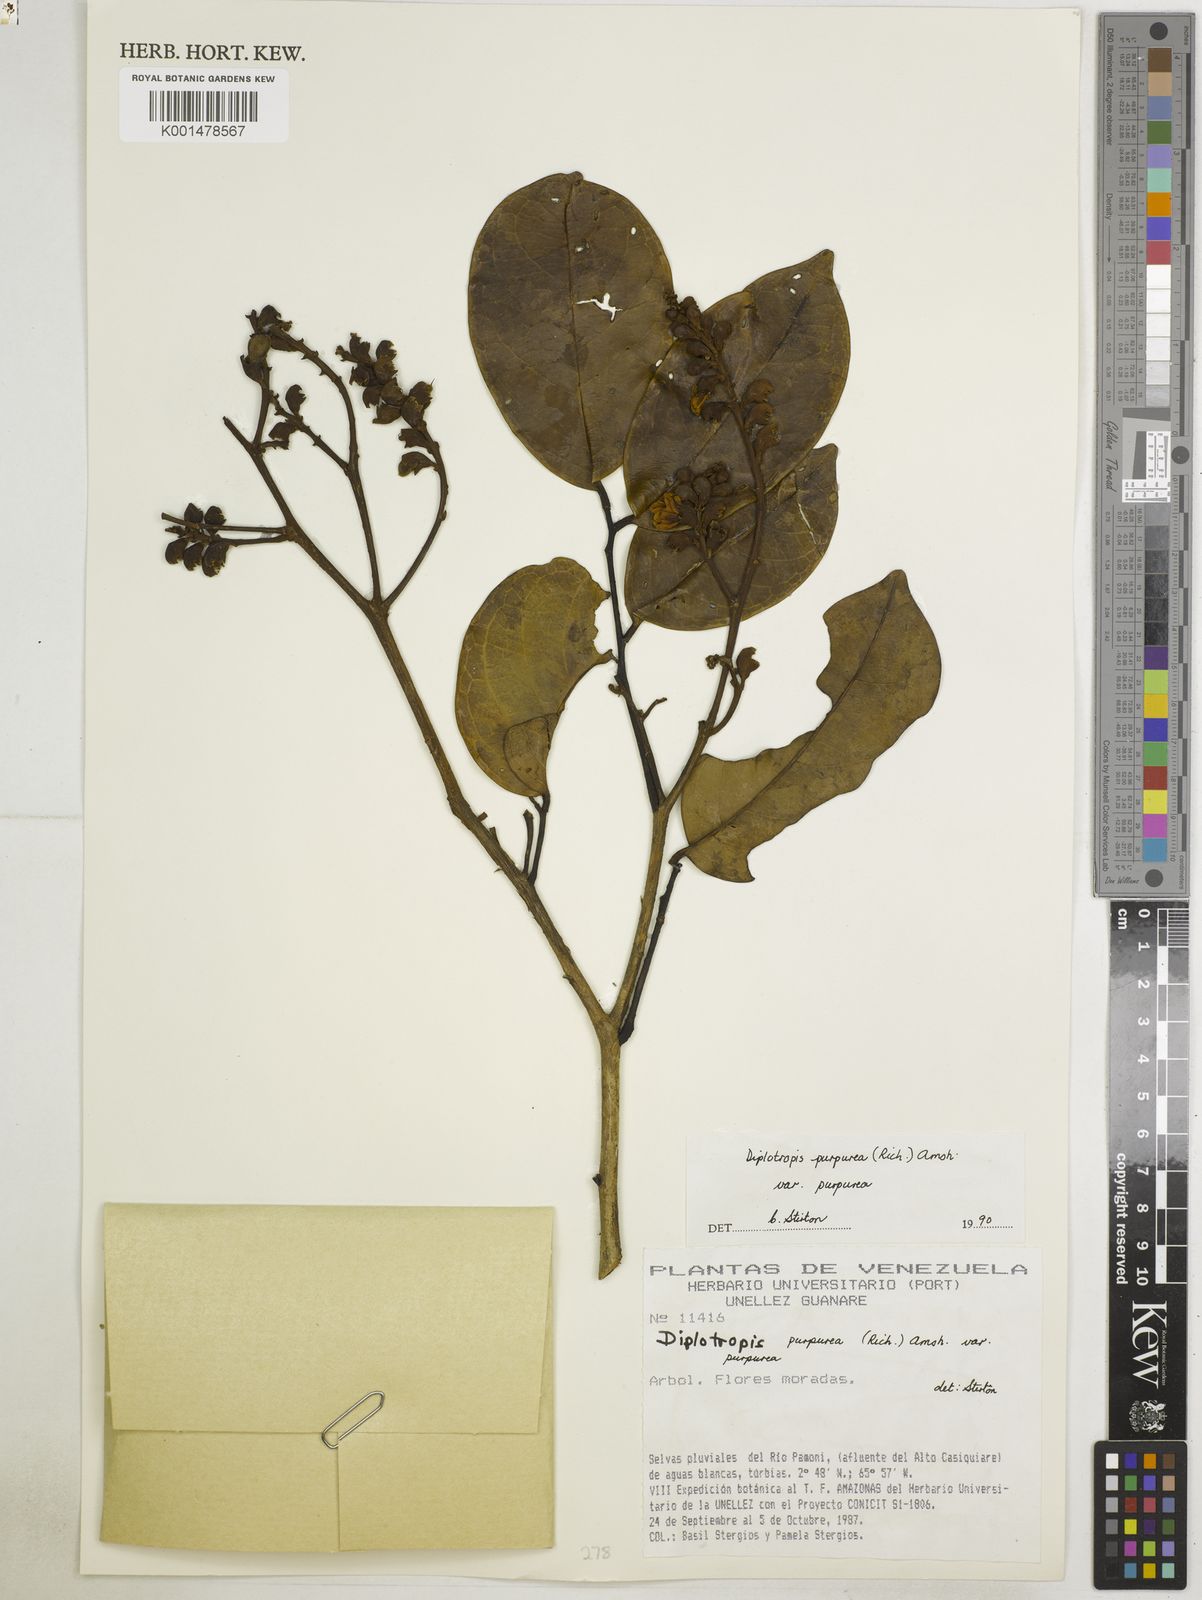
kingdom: Plantae
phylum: Tracheophyta
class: Magnoliopsida
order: Fabales
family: Fabaceae
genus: Diplotropis
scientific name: Diplotropis purpurea
